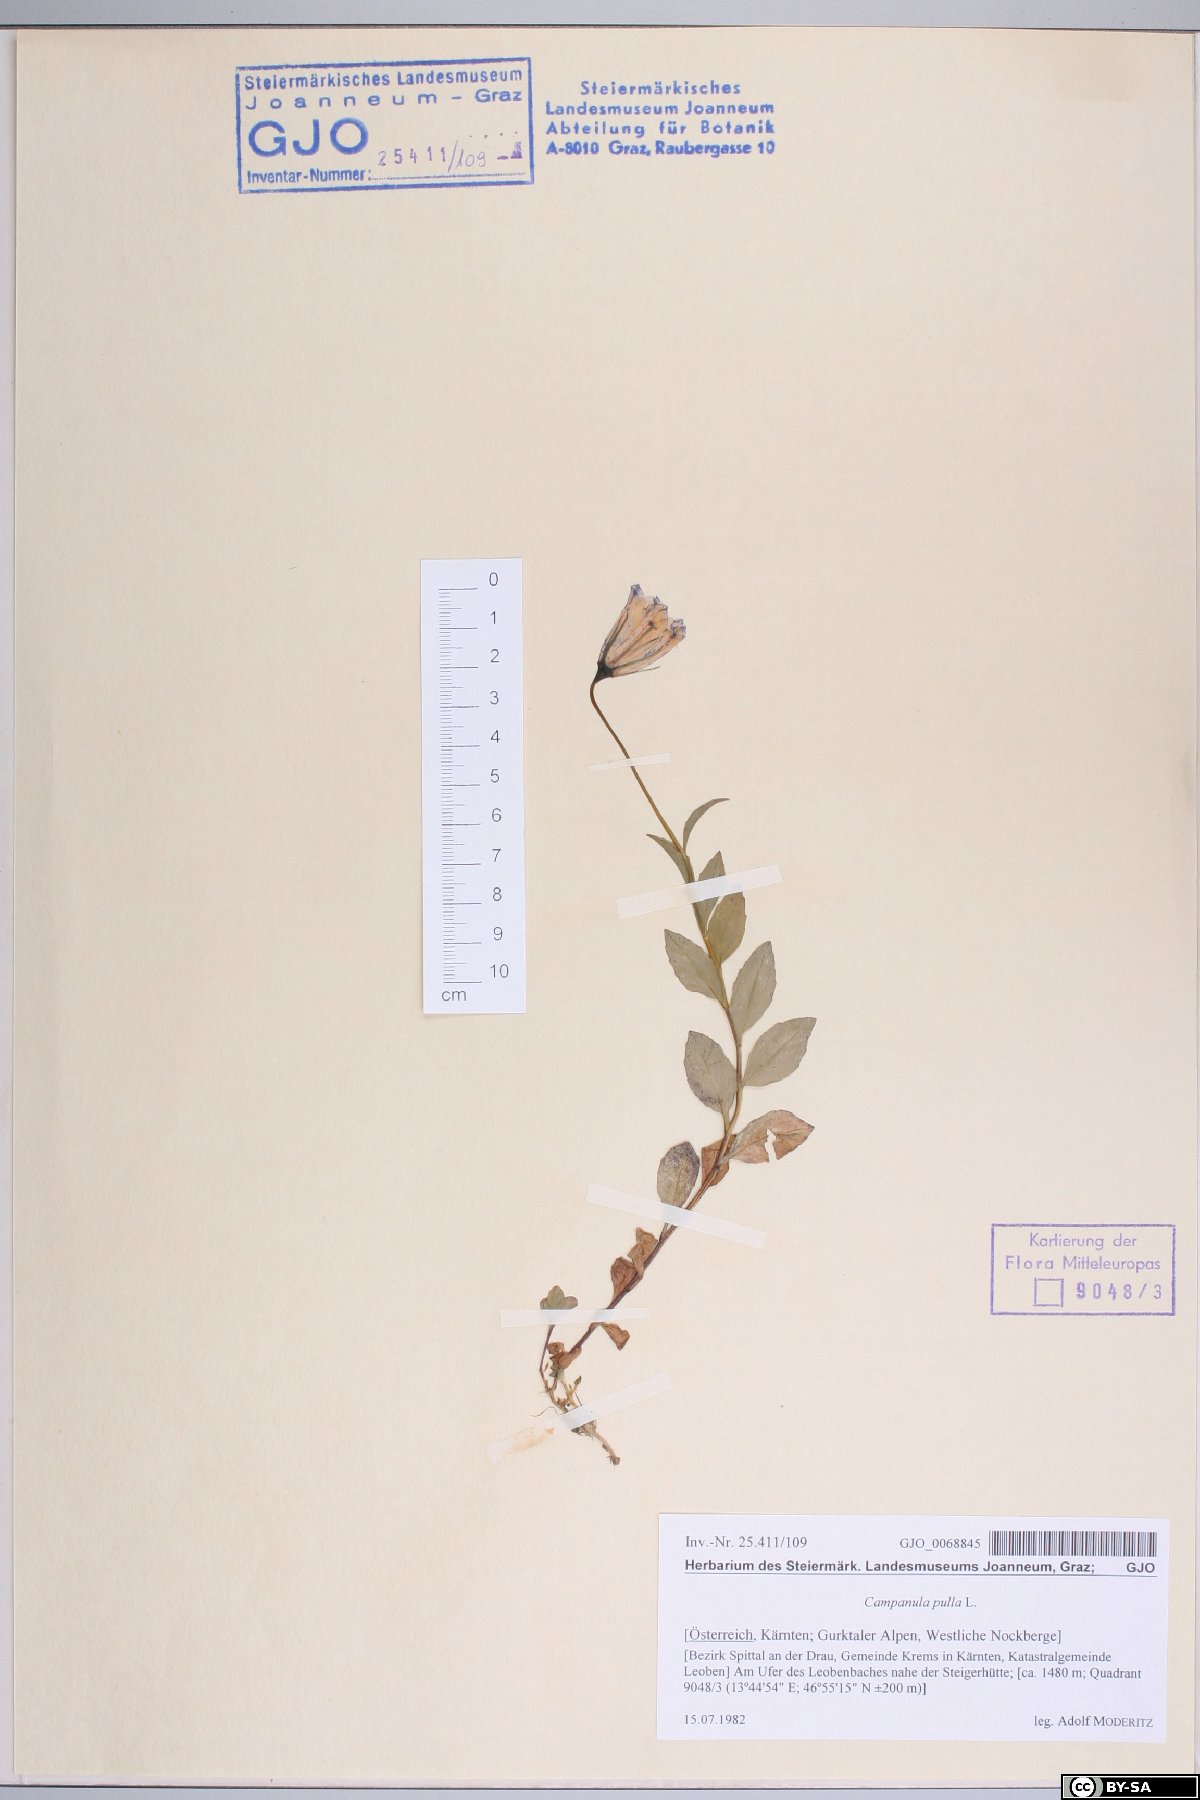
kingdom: Plantae
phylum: Tracheophyta
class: Magnoliopsida
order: Asterales
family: Campanulaceae
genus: Campanula
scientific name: Campanula pulla
